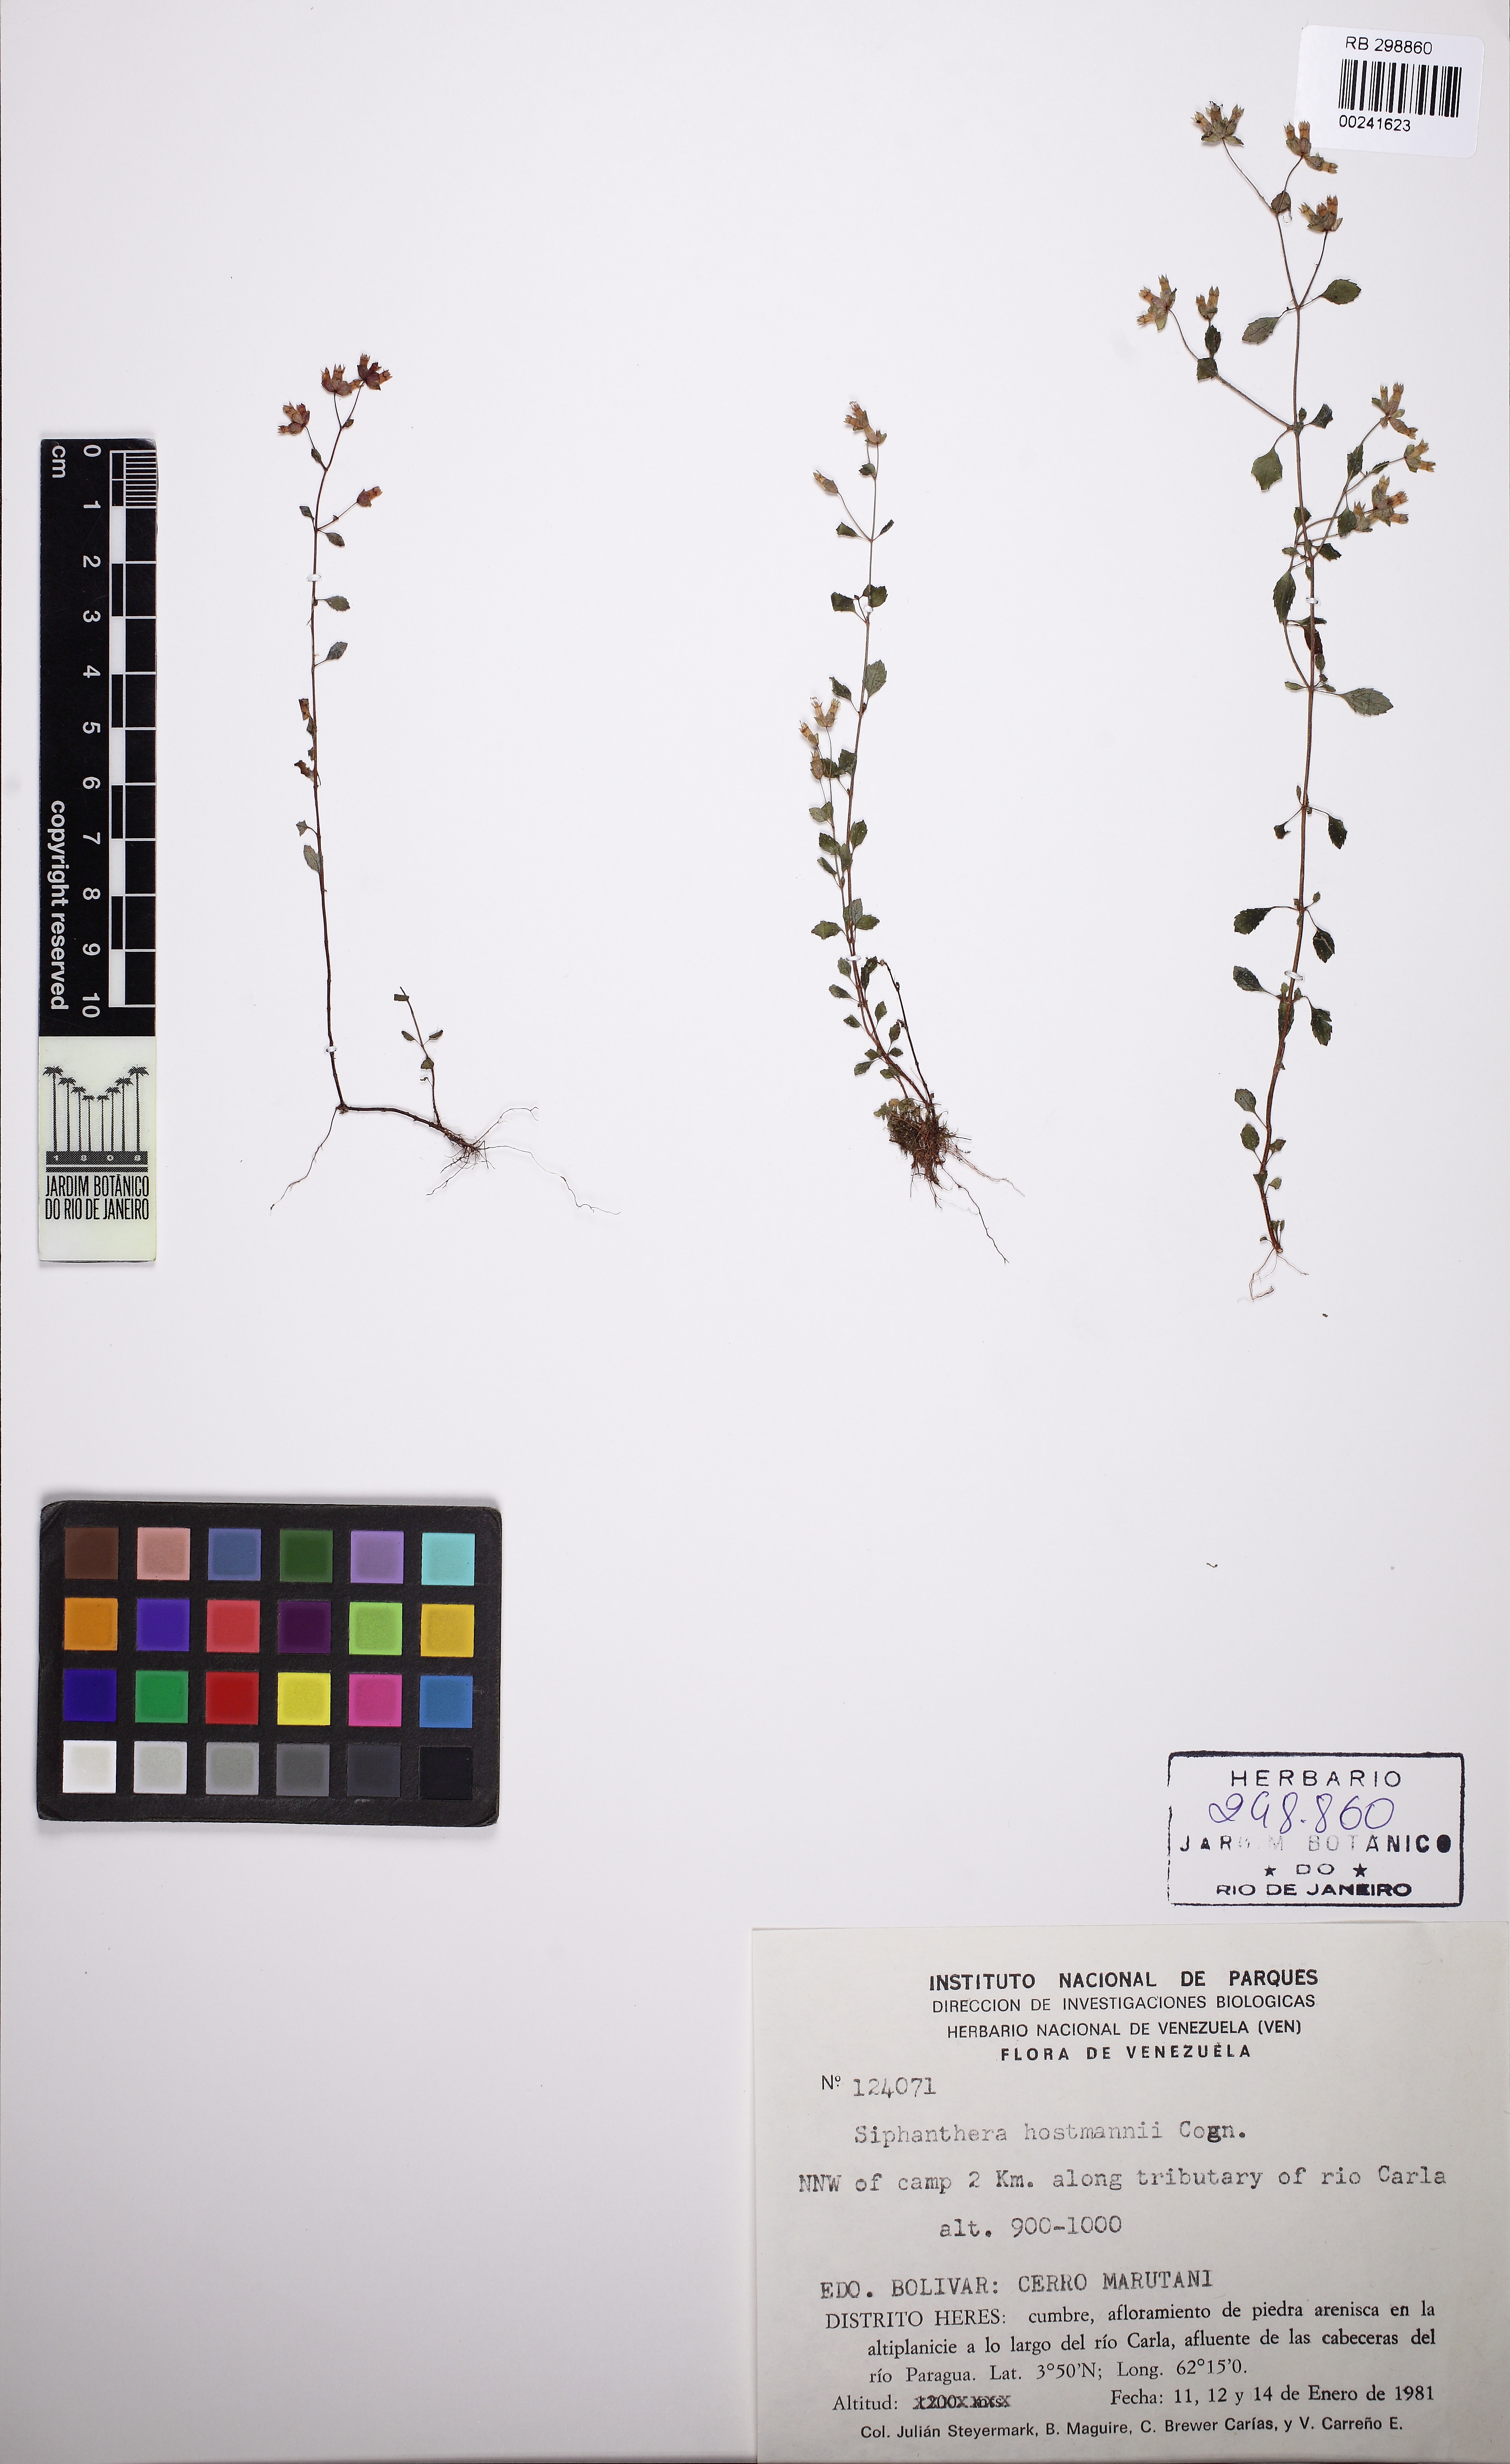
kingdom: Plantae
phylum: Tracheophyta
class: Magnoliopsida
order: Myrtales
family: Melastomataceae
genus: Siphanthera
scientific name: Siphanthera hostmannii
